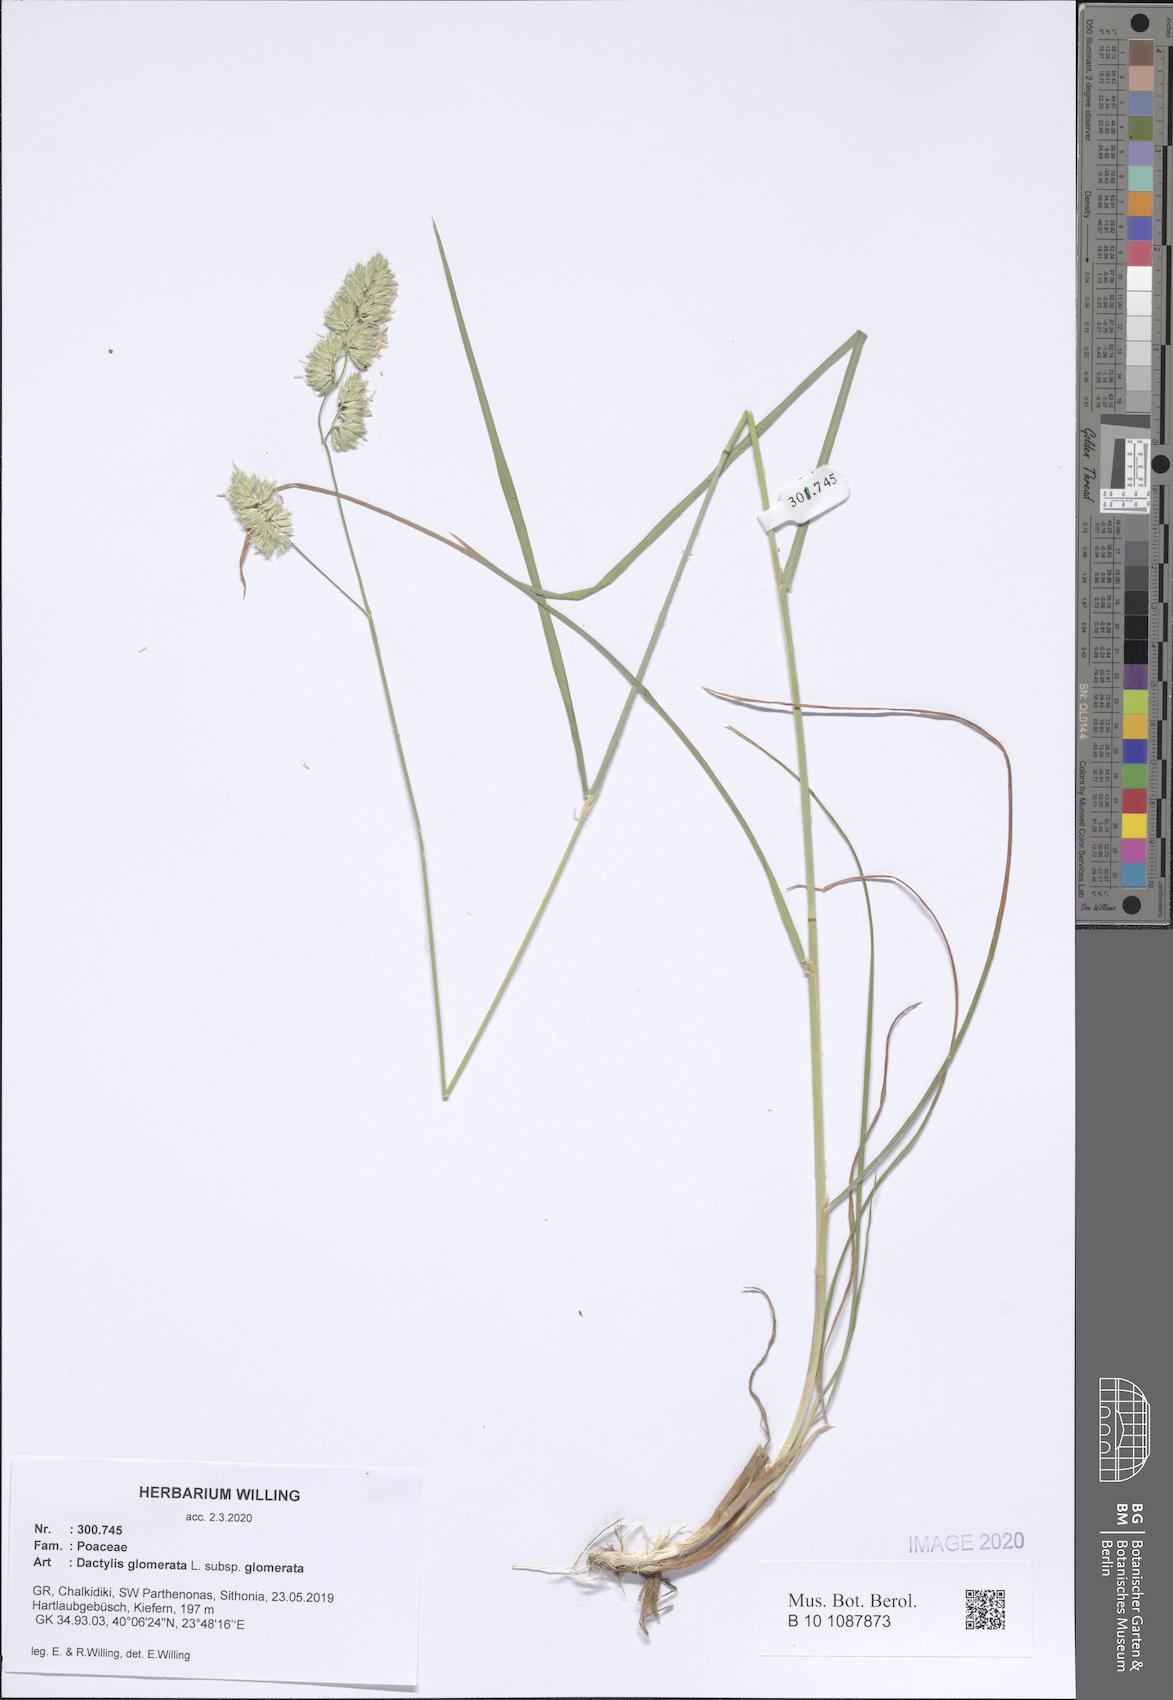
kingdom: Plantae
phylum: Tracheophyta
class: Liliopsida
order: Poales
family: Poaceae
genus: Dactylis
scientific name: Dactylis glomerata
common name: Orchardgrass
